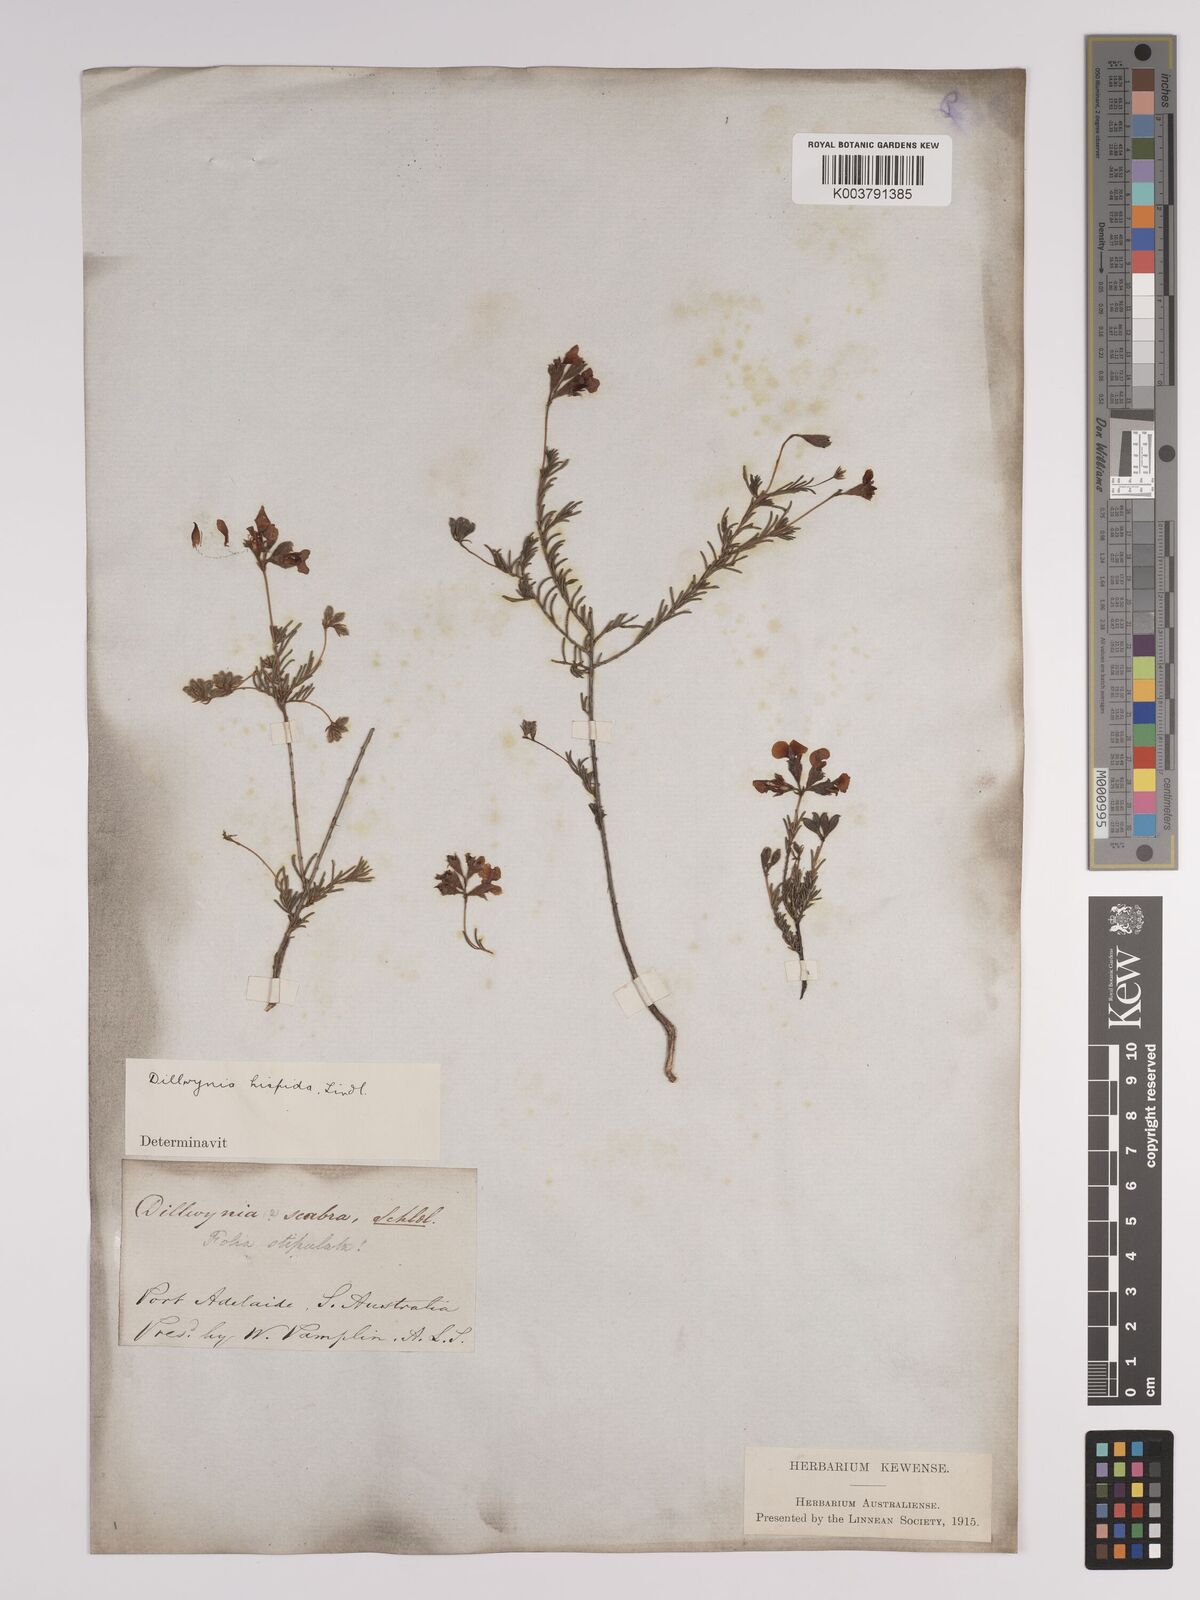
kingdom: Plantae
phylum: Tracheophyta
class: Magnoliopsida
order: Fabales
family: Fabaceae
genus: Dillwynia
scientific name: Dillwynia hispida
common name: Red parrot-pea
